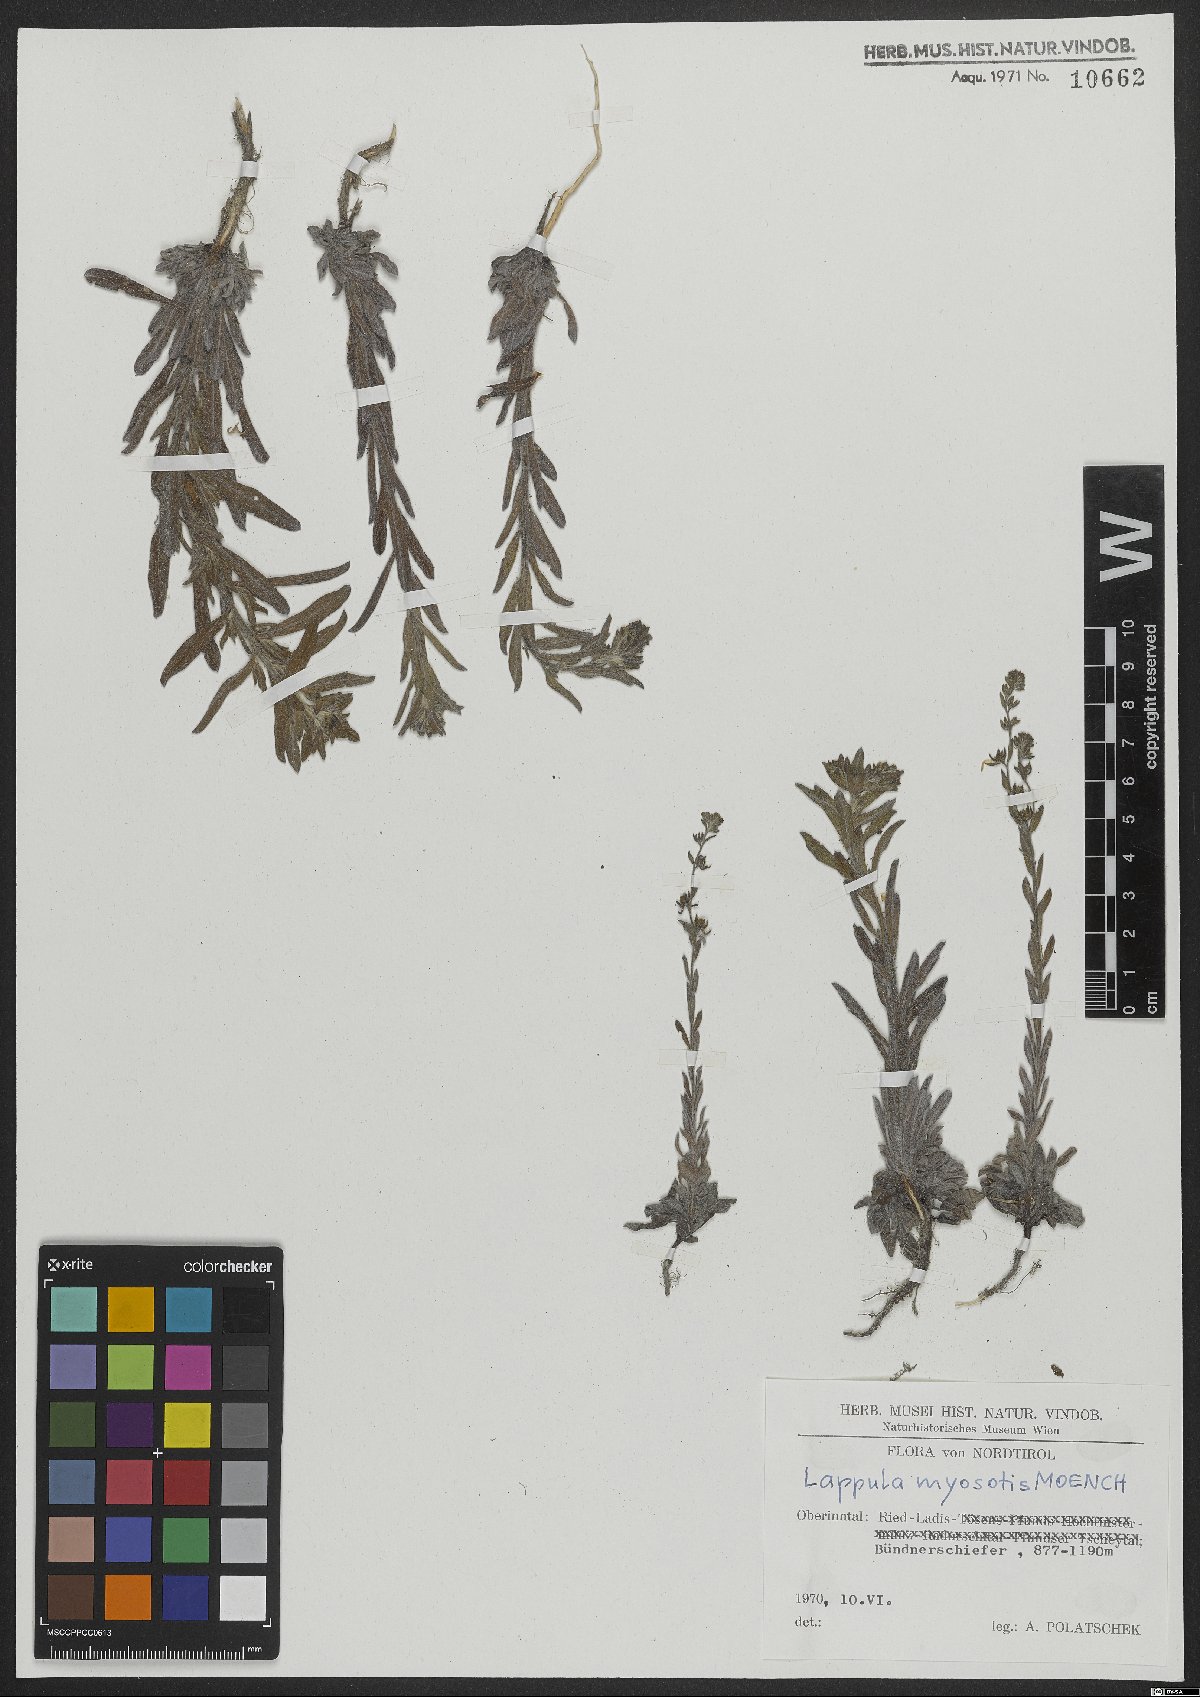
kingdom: Plantae
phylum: Tracheophyta
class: Magnoliopsida
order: Boraginales
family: Boraginaceae
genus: Lappula
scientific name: Lappula squarrosa
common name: European stickseed
